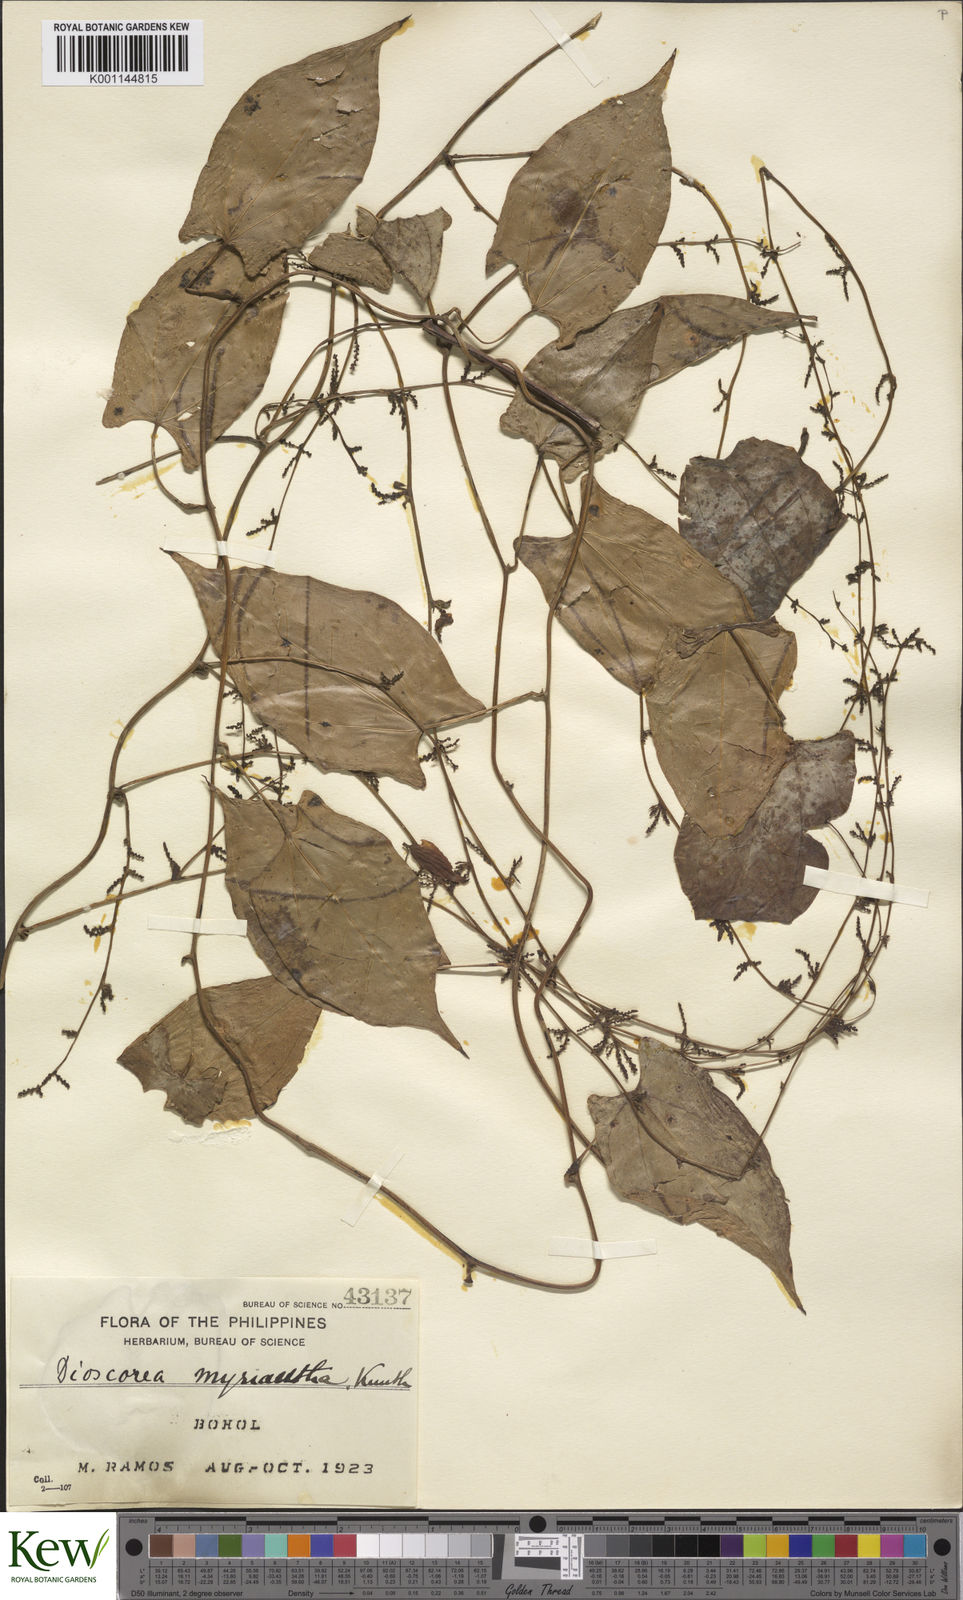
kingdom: Plantae
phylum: Tracheophyta
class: Liliopsida
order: Dioscoreales
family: Dioscoreaceae
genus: Dioscorea
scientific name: Dioscorea filiformis
